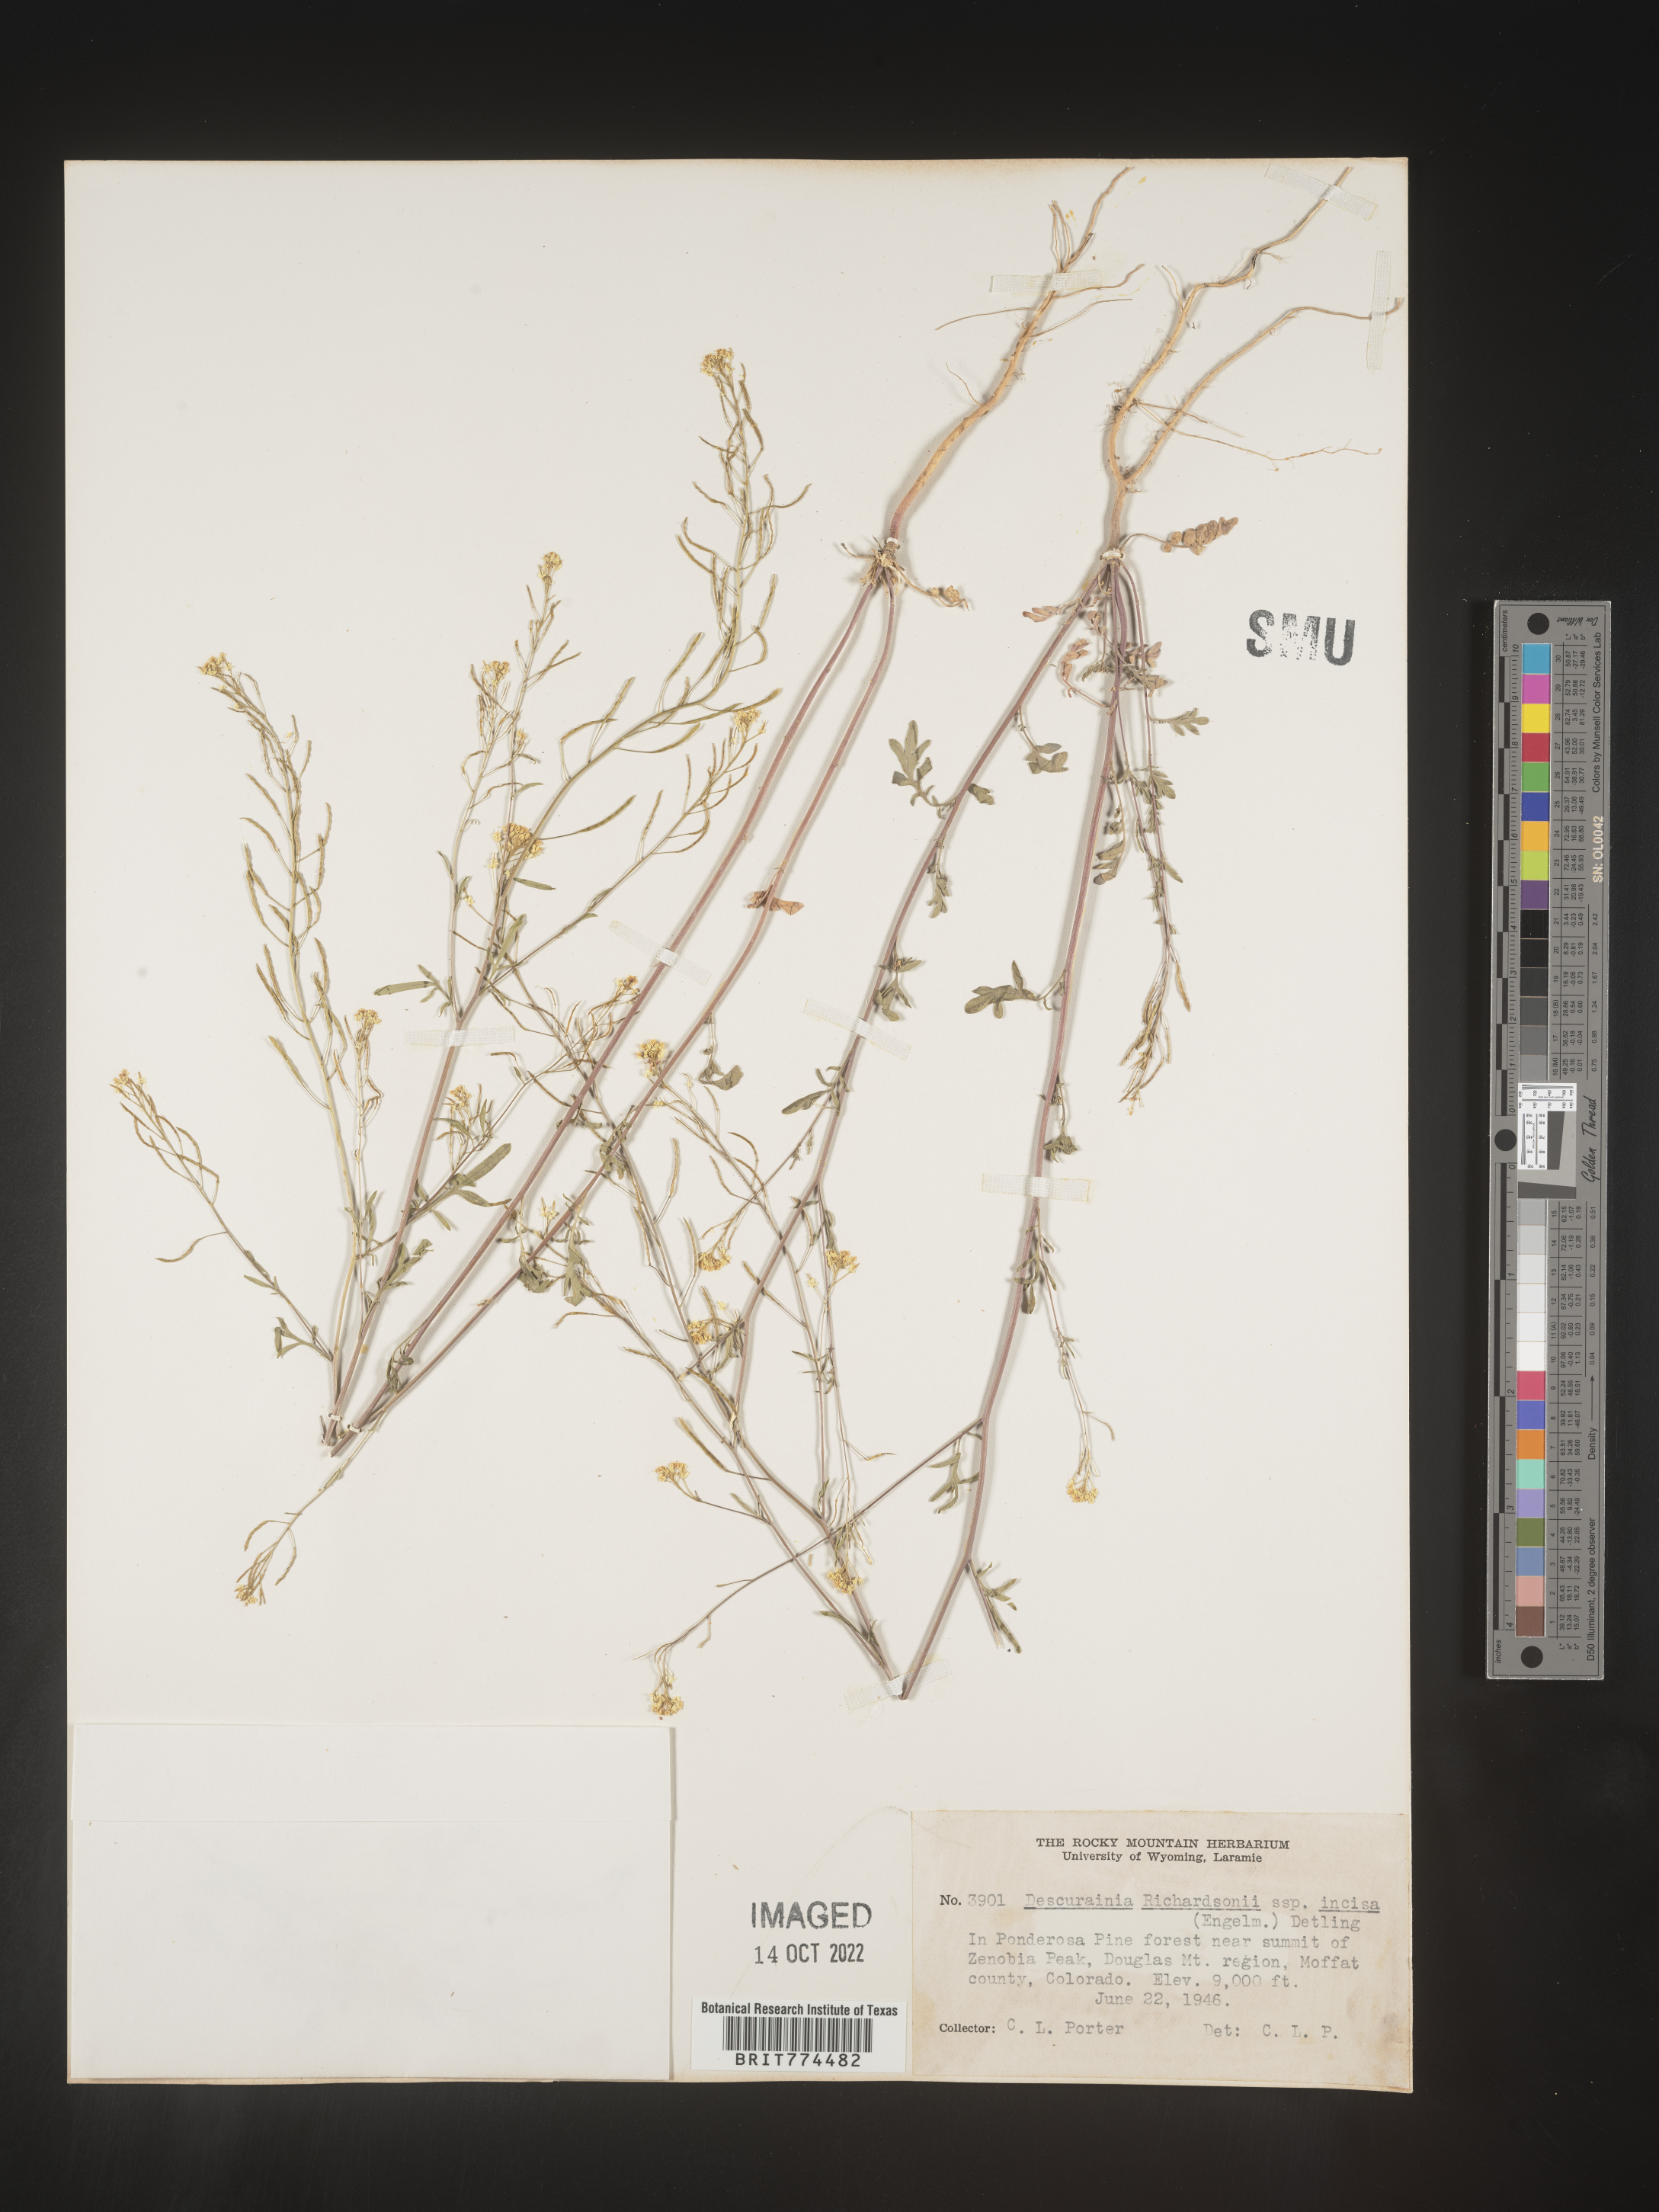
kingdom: Plantae
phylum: Tracheophyta
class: Magnoliopsida
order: Brassicales
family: Brassicaceae
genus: Descurainia
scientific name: Descurainia
